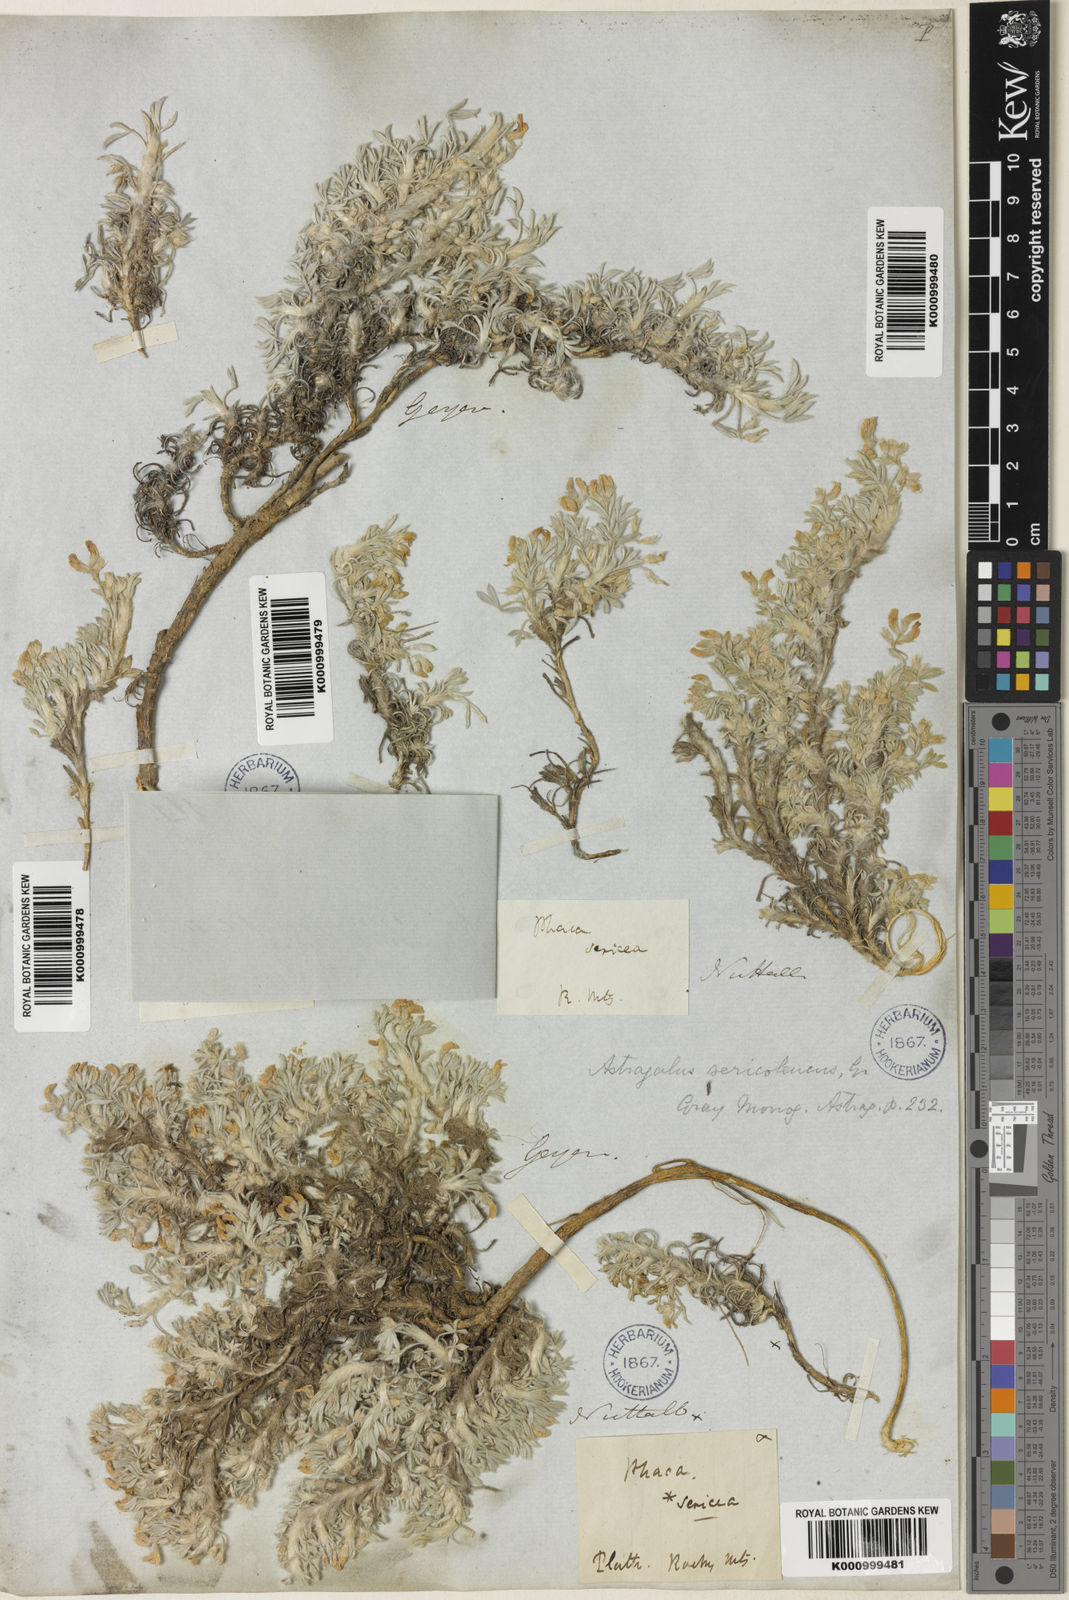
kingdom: Plantae
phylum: Tracheophyta
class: Magnoliopsida
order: Fabales
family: Fabaceae
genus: Astragalus
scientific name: Astragalus sericoleucus
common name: Silky orophaca
